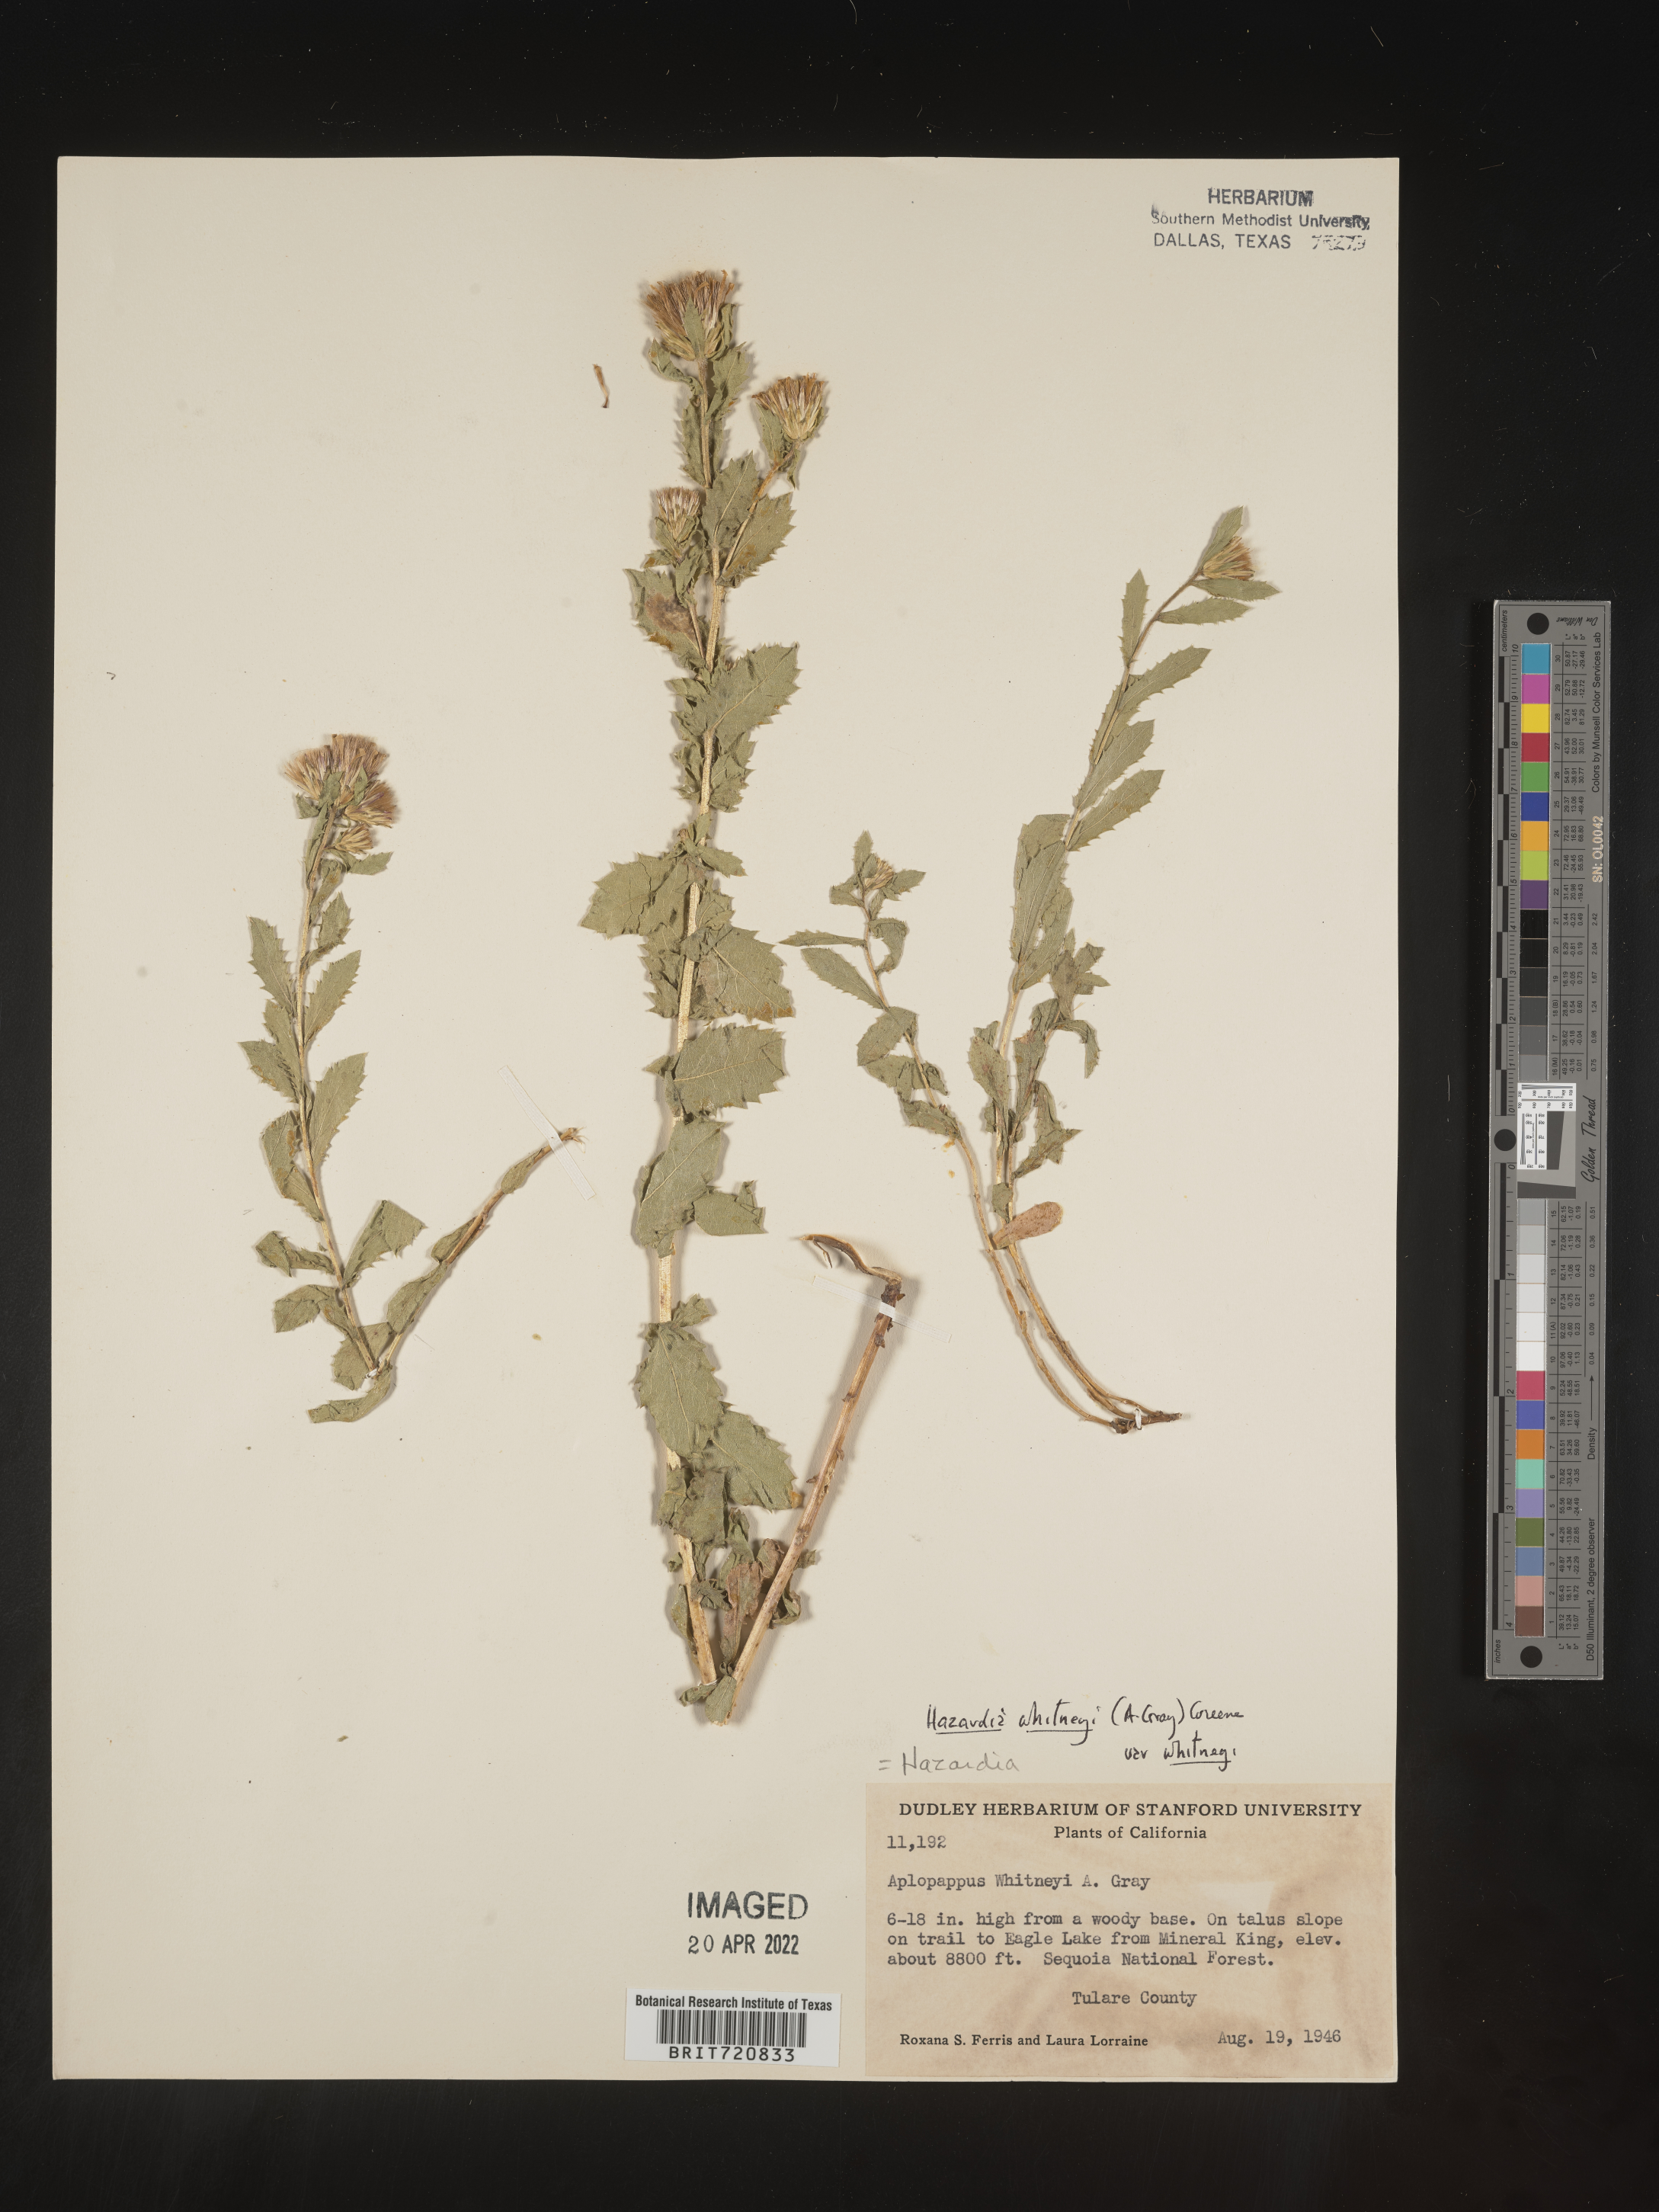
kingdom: Plantae
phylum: Tracheophyta
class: Magnoliopsida
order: Asterales
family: Asteraceae
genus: Hazardia
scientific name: Hazardia
